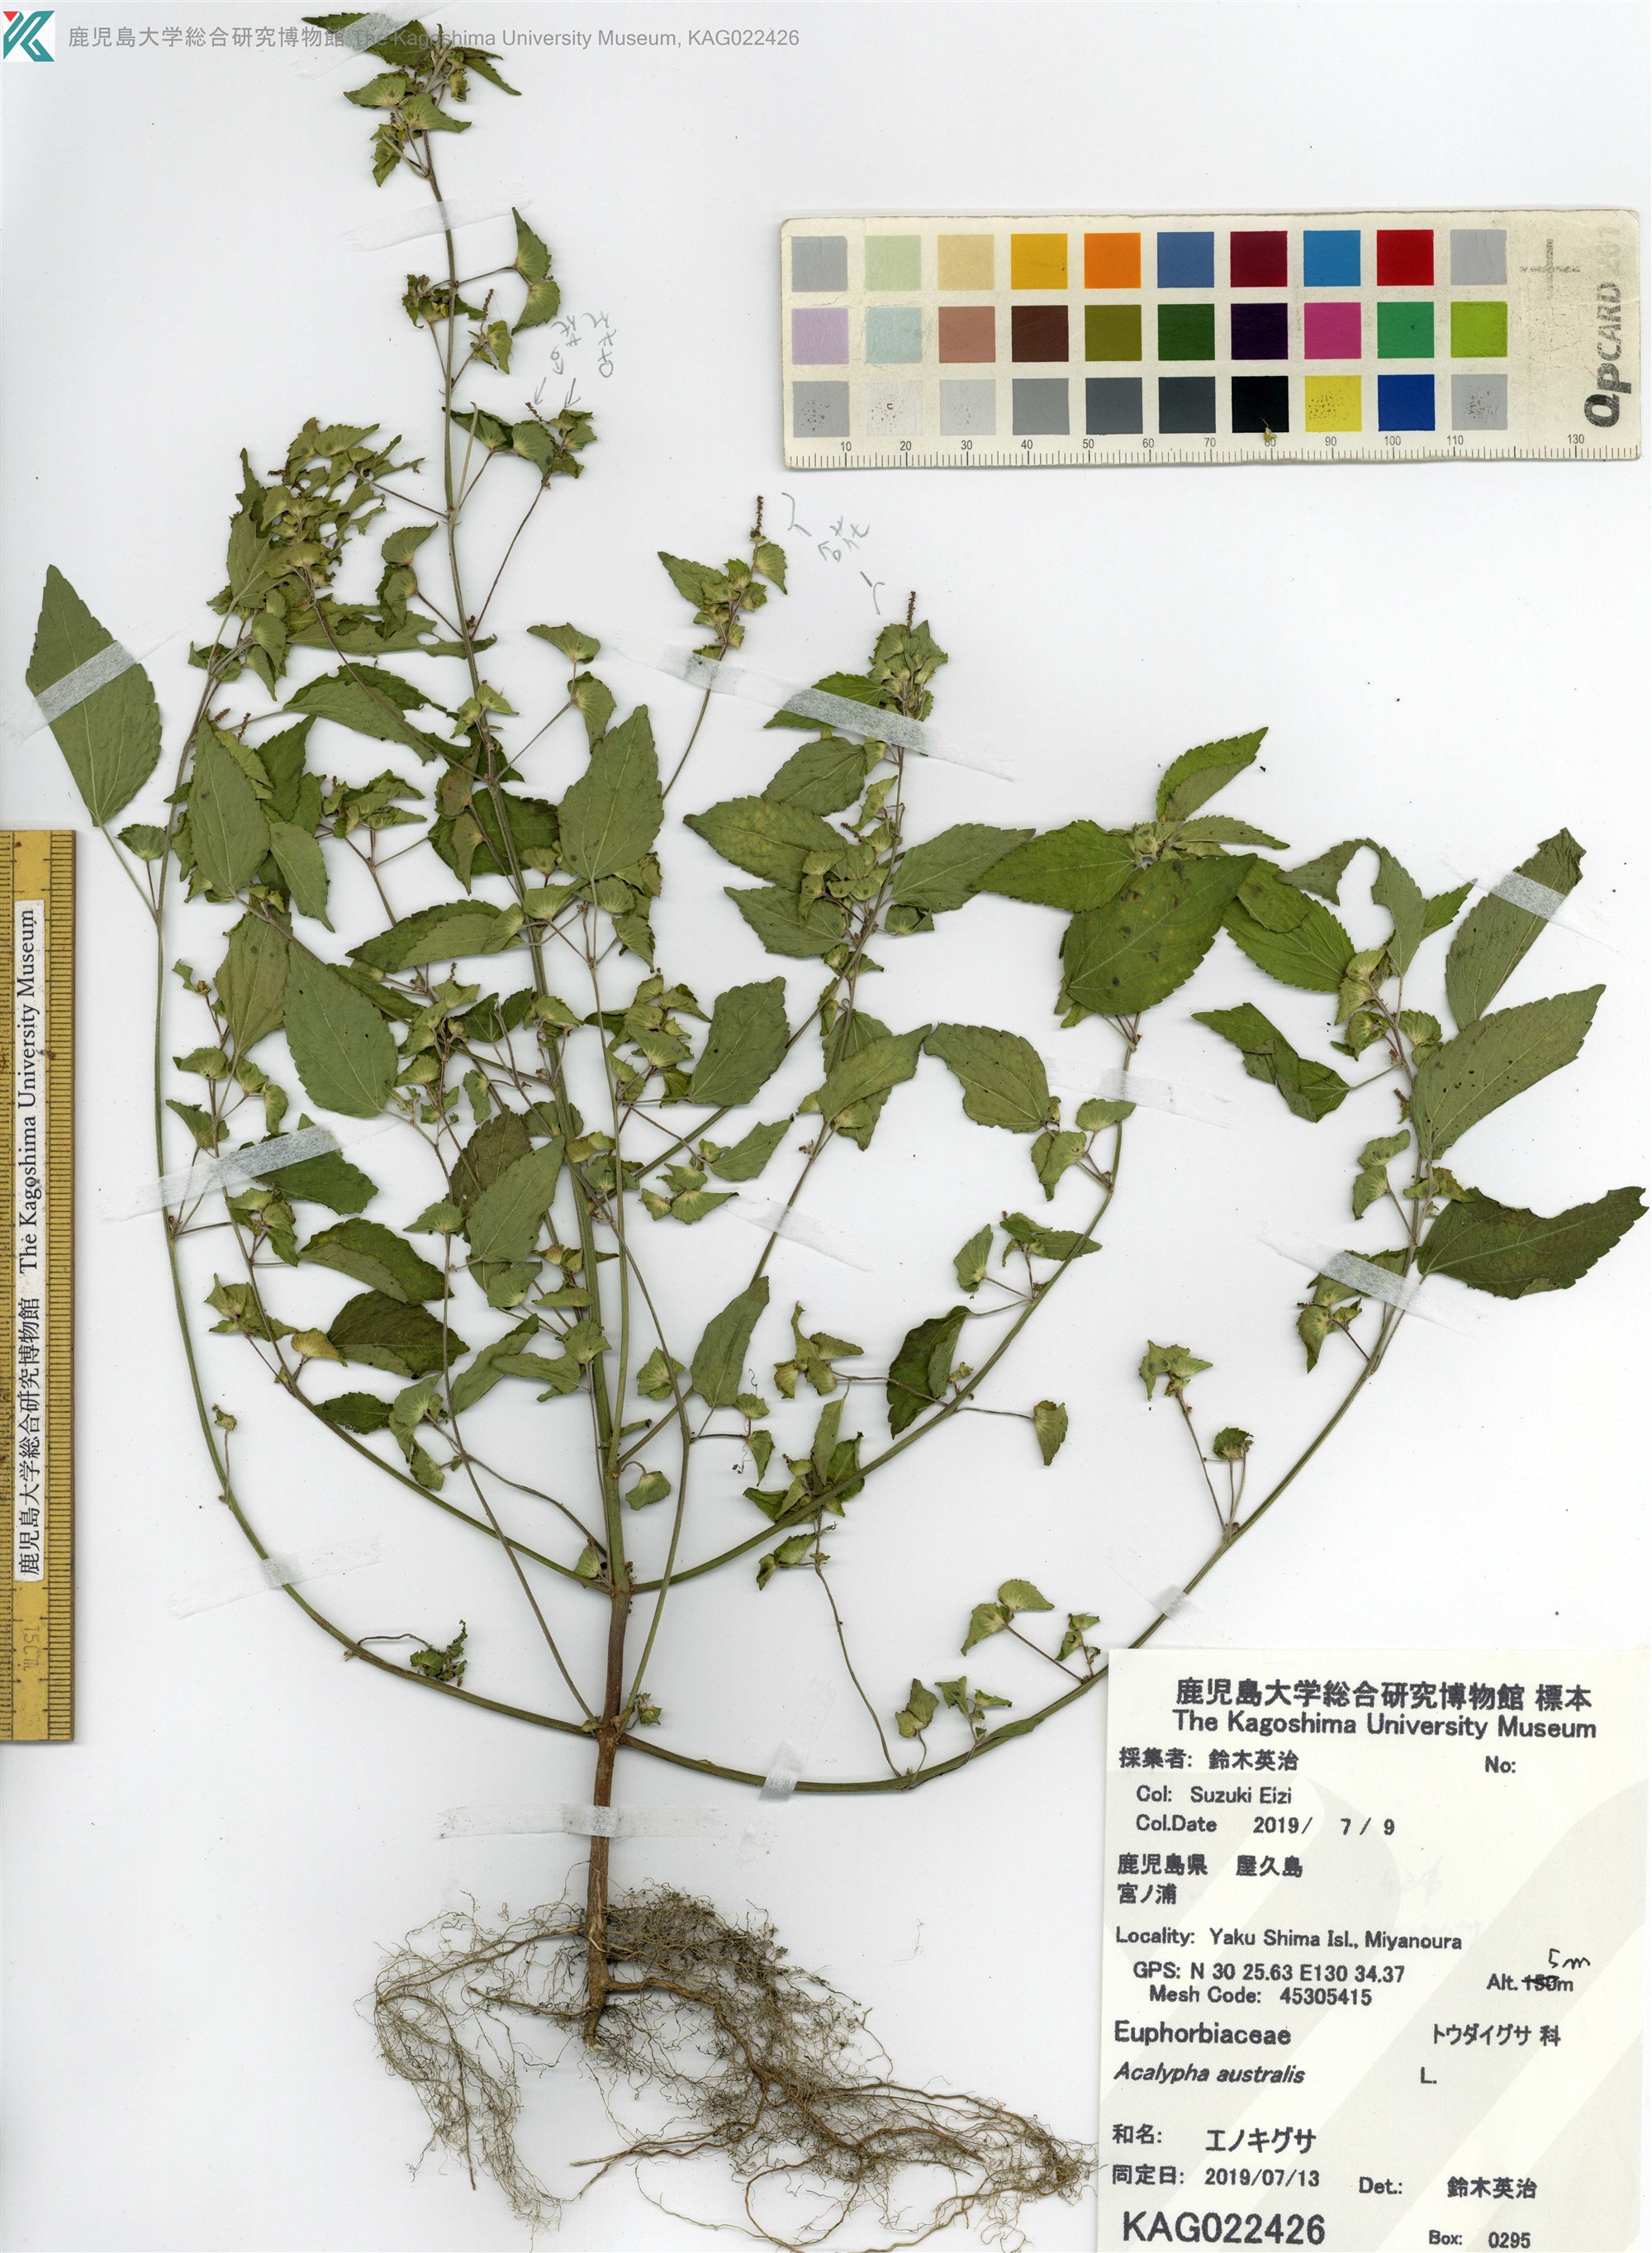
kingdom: Plantae
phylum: Tracheophyta
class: Magnoliopsida
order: Malpighiales
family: Euphorbiaceae
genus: Acalypha
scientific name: Acalypha australis
